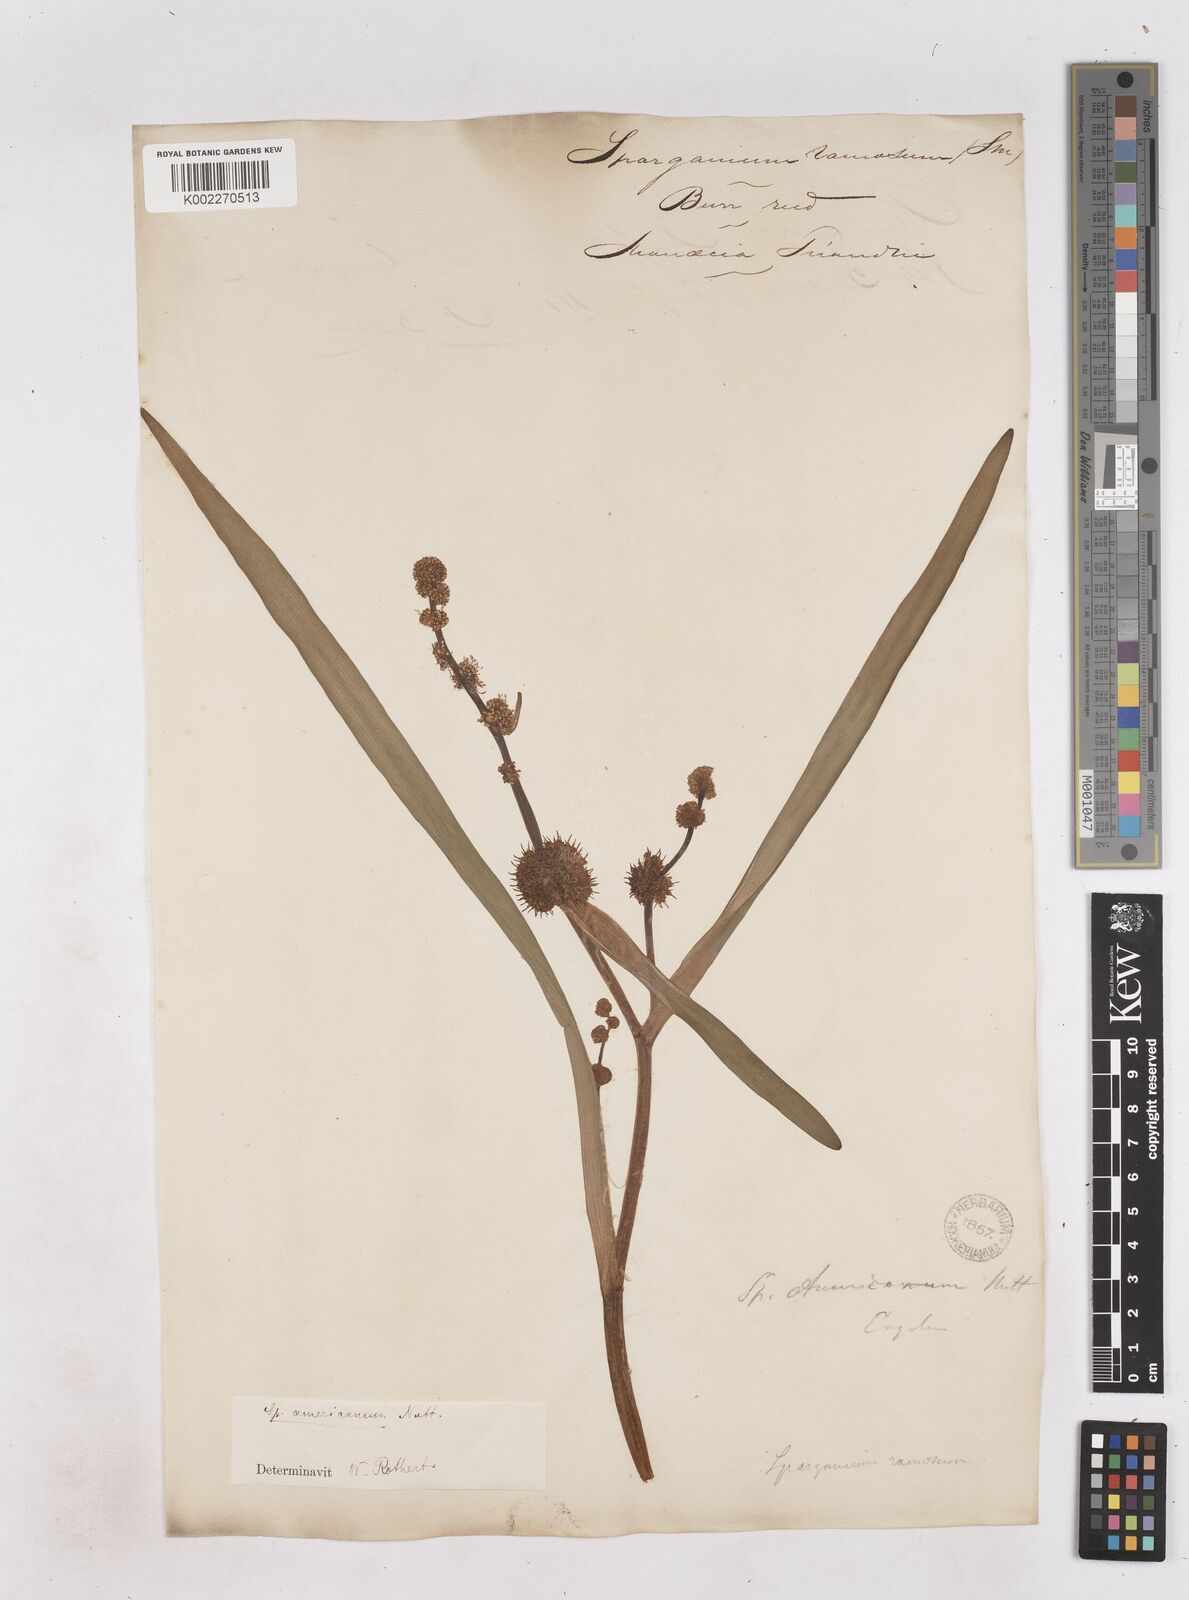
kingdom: Plantae
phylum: Tracheophyta
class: Liliopsida
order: Poales
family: Typhaceae
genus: Sparganium
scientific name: Sparganium americanum
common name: American burreed
